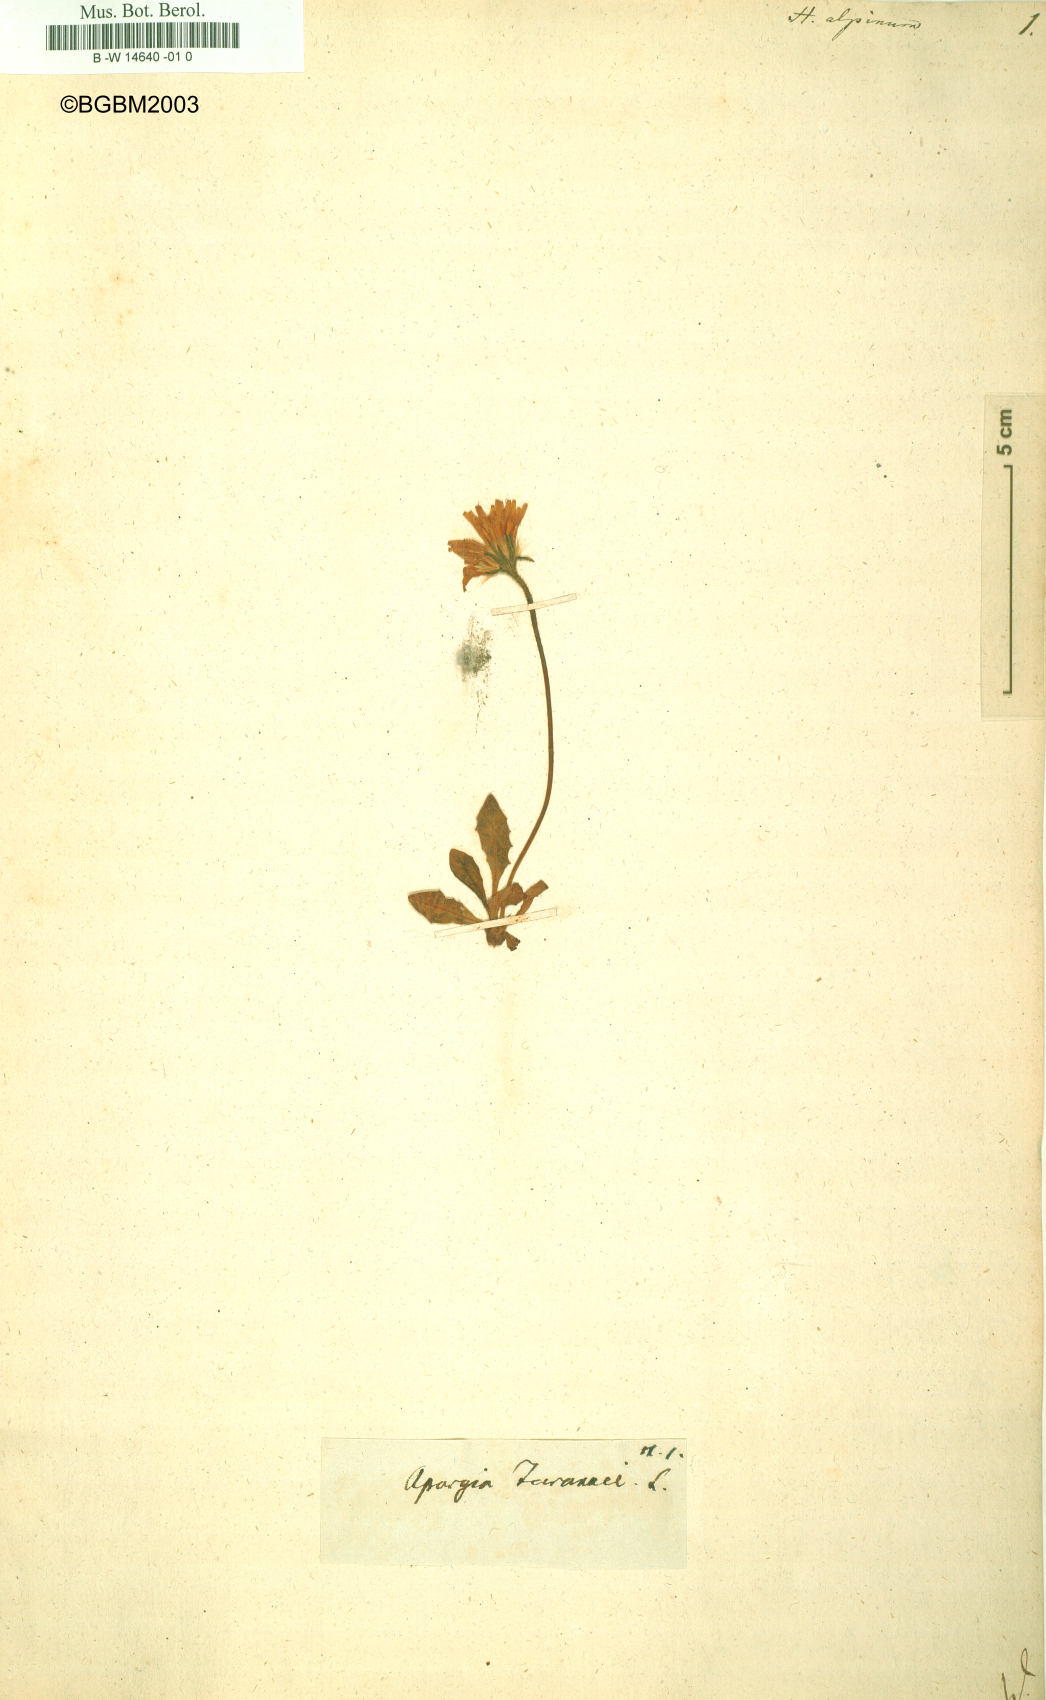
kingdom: Plantae
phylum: Tracheophyta
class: Magnoliopsida
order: Asterales
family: Asteraceae
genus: Hieracium
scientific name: Hieracium alpinum
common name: Alpine hawkweed
